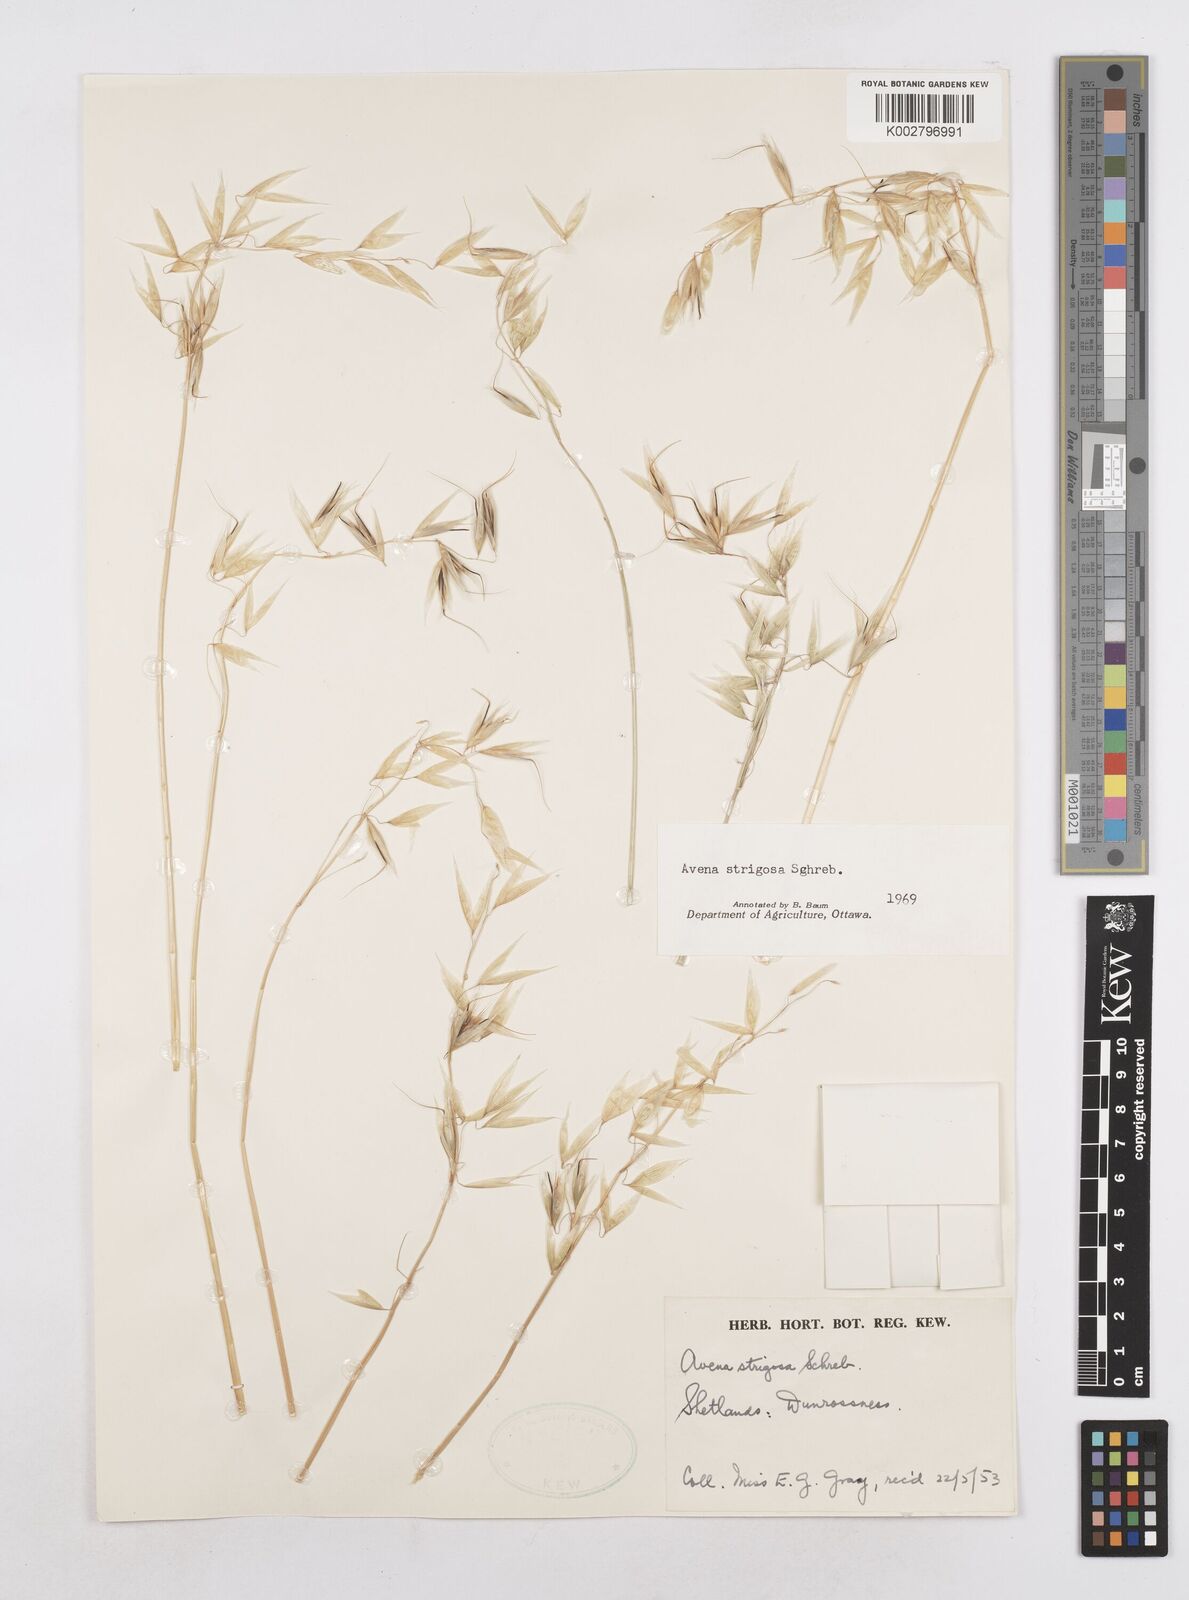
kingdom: Plantae
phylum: Tracheophyta
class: Liliopsida
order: Poales
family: Poaceae
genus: Avena
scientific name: Avena strigosa
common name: Bristle oat
